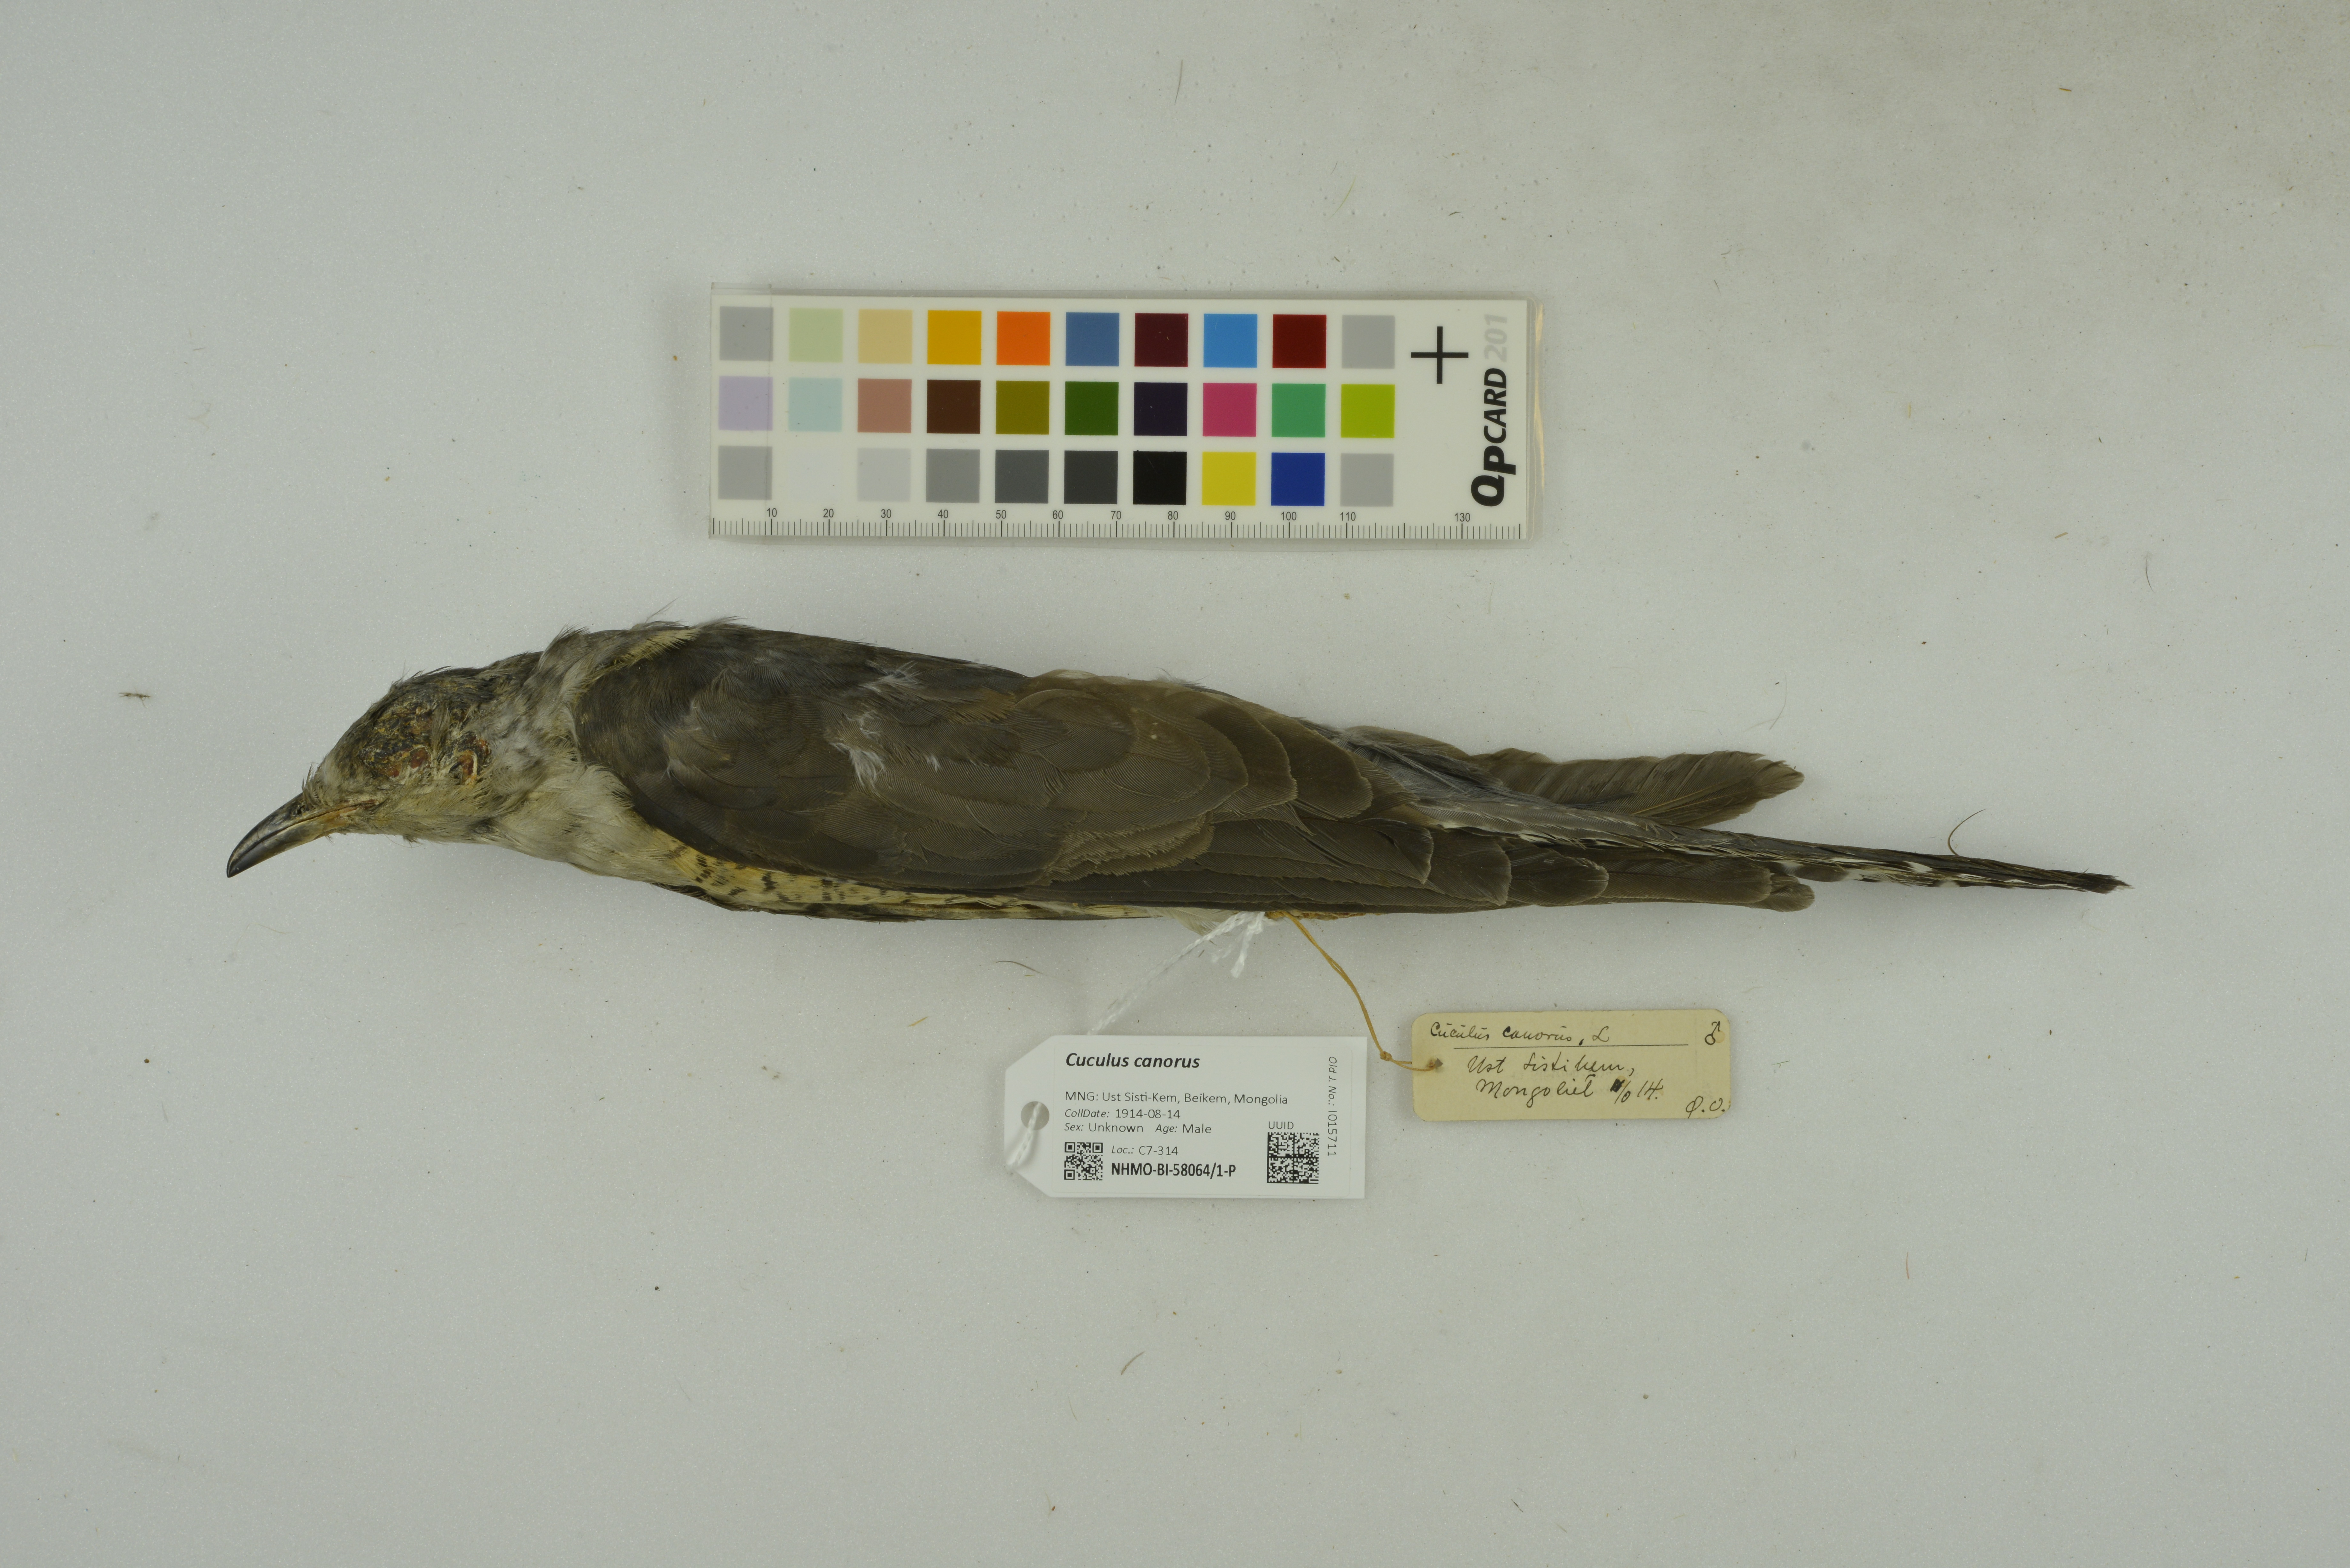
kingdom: Animalia
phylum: Chordata
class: Aves
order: Cuculiformes
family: Cuculidae
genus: Cuculus
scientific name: Cuculus canorus
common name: Common cuckoo
